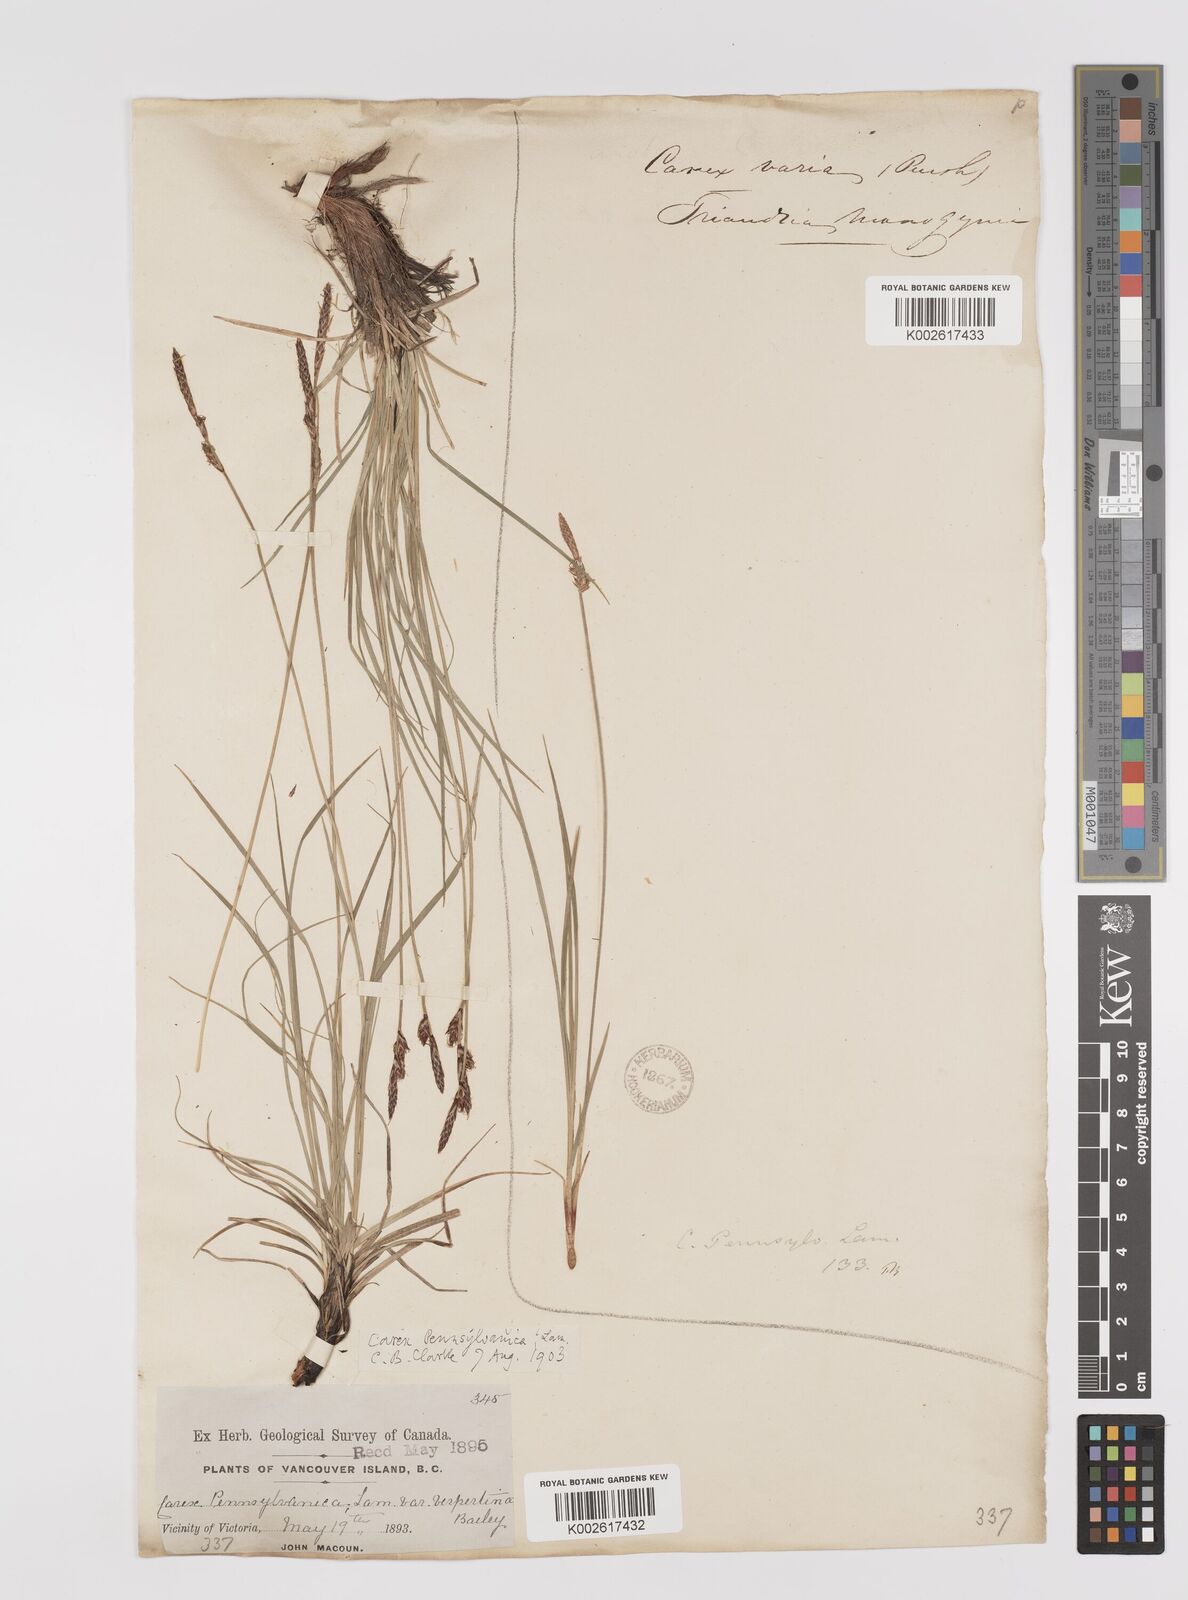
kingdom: Plantae
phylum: Tracheophyta
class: Liliopsida
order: Poales
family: Cyperaceae
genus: Carex
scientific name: Carex inops
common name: Long-stolon sedge
